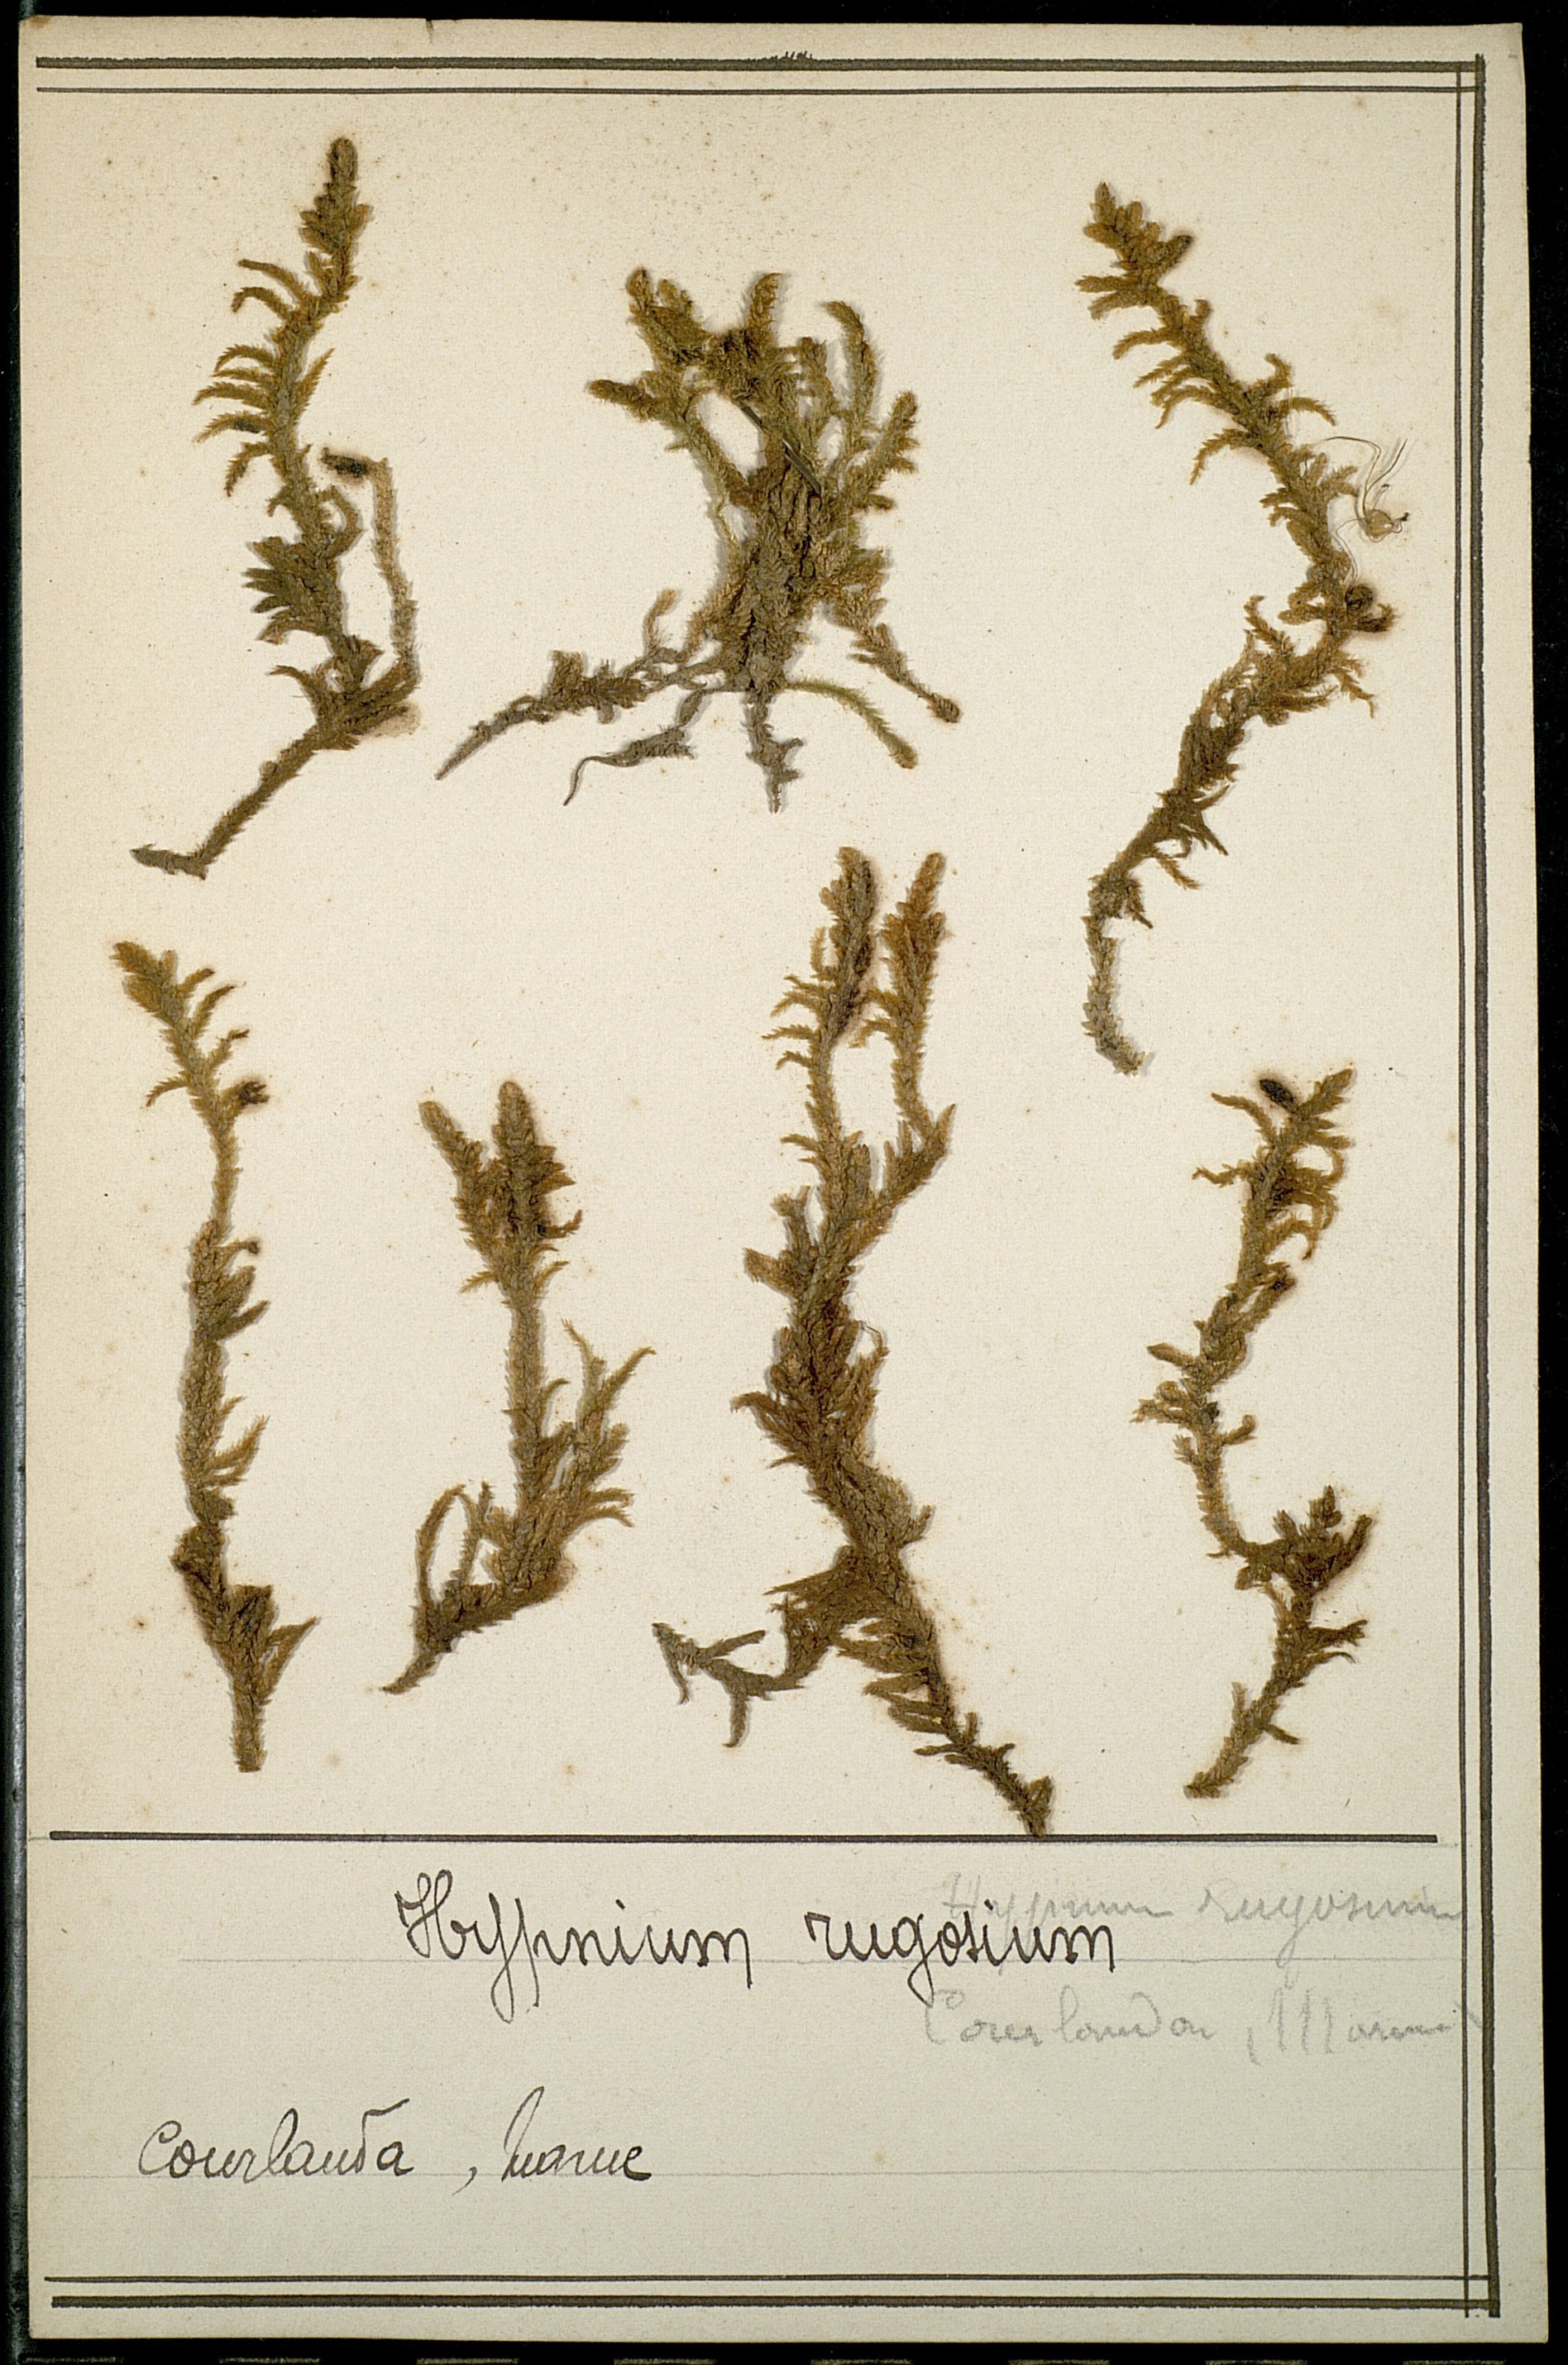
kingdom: Plantae
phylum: Bryophyta
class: Bryopsida
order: Hypnales
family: Rhytidiaceae
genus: Rhytidium
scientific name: Rhytidium rugosum
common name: Wrinkle-leaved moss
